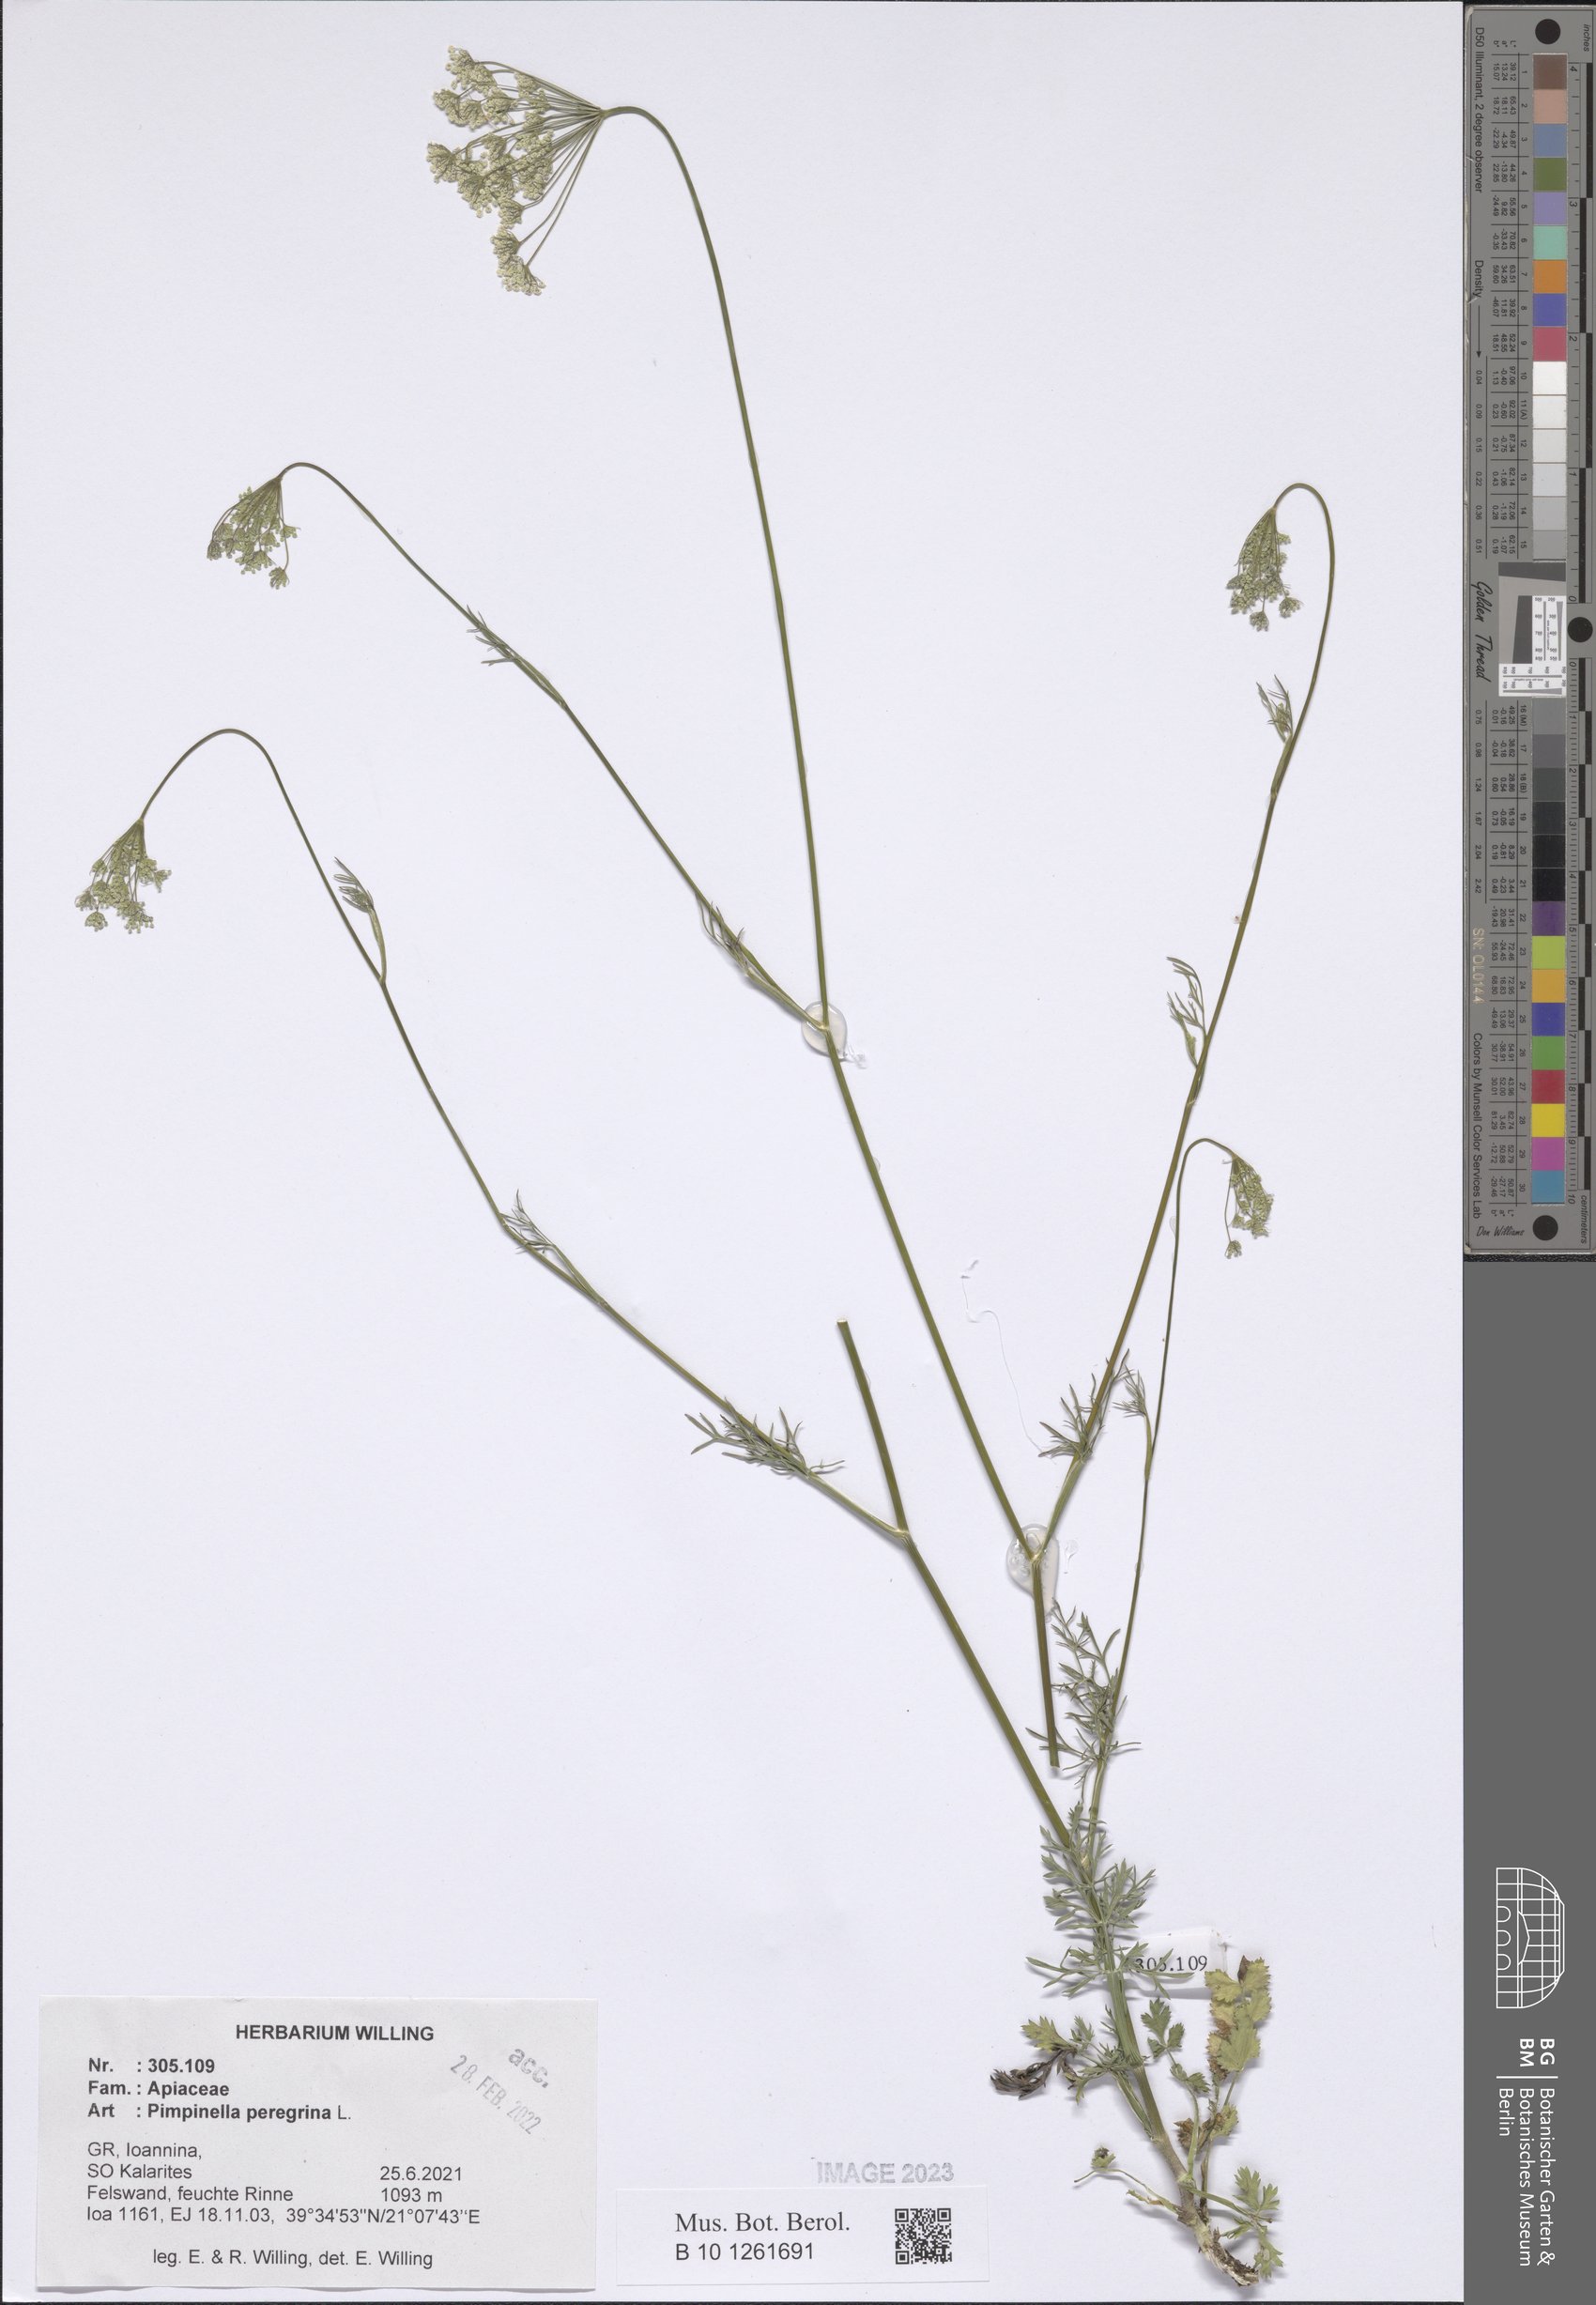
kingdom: Plantae
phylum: Tracheophyta
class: Magnoliopsida
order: Apiales
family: Apiaceae
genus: Pimpinella
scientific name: Pimpinella peregrina
